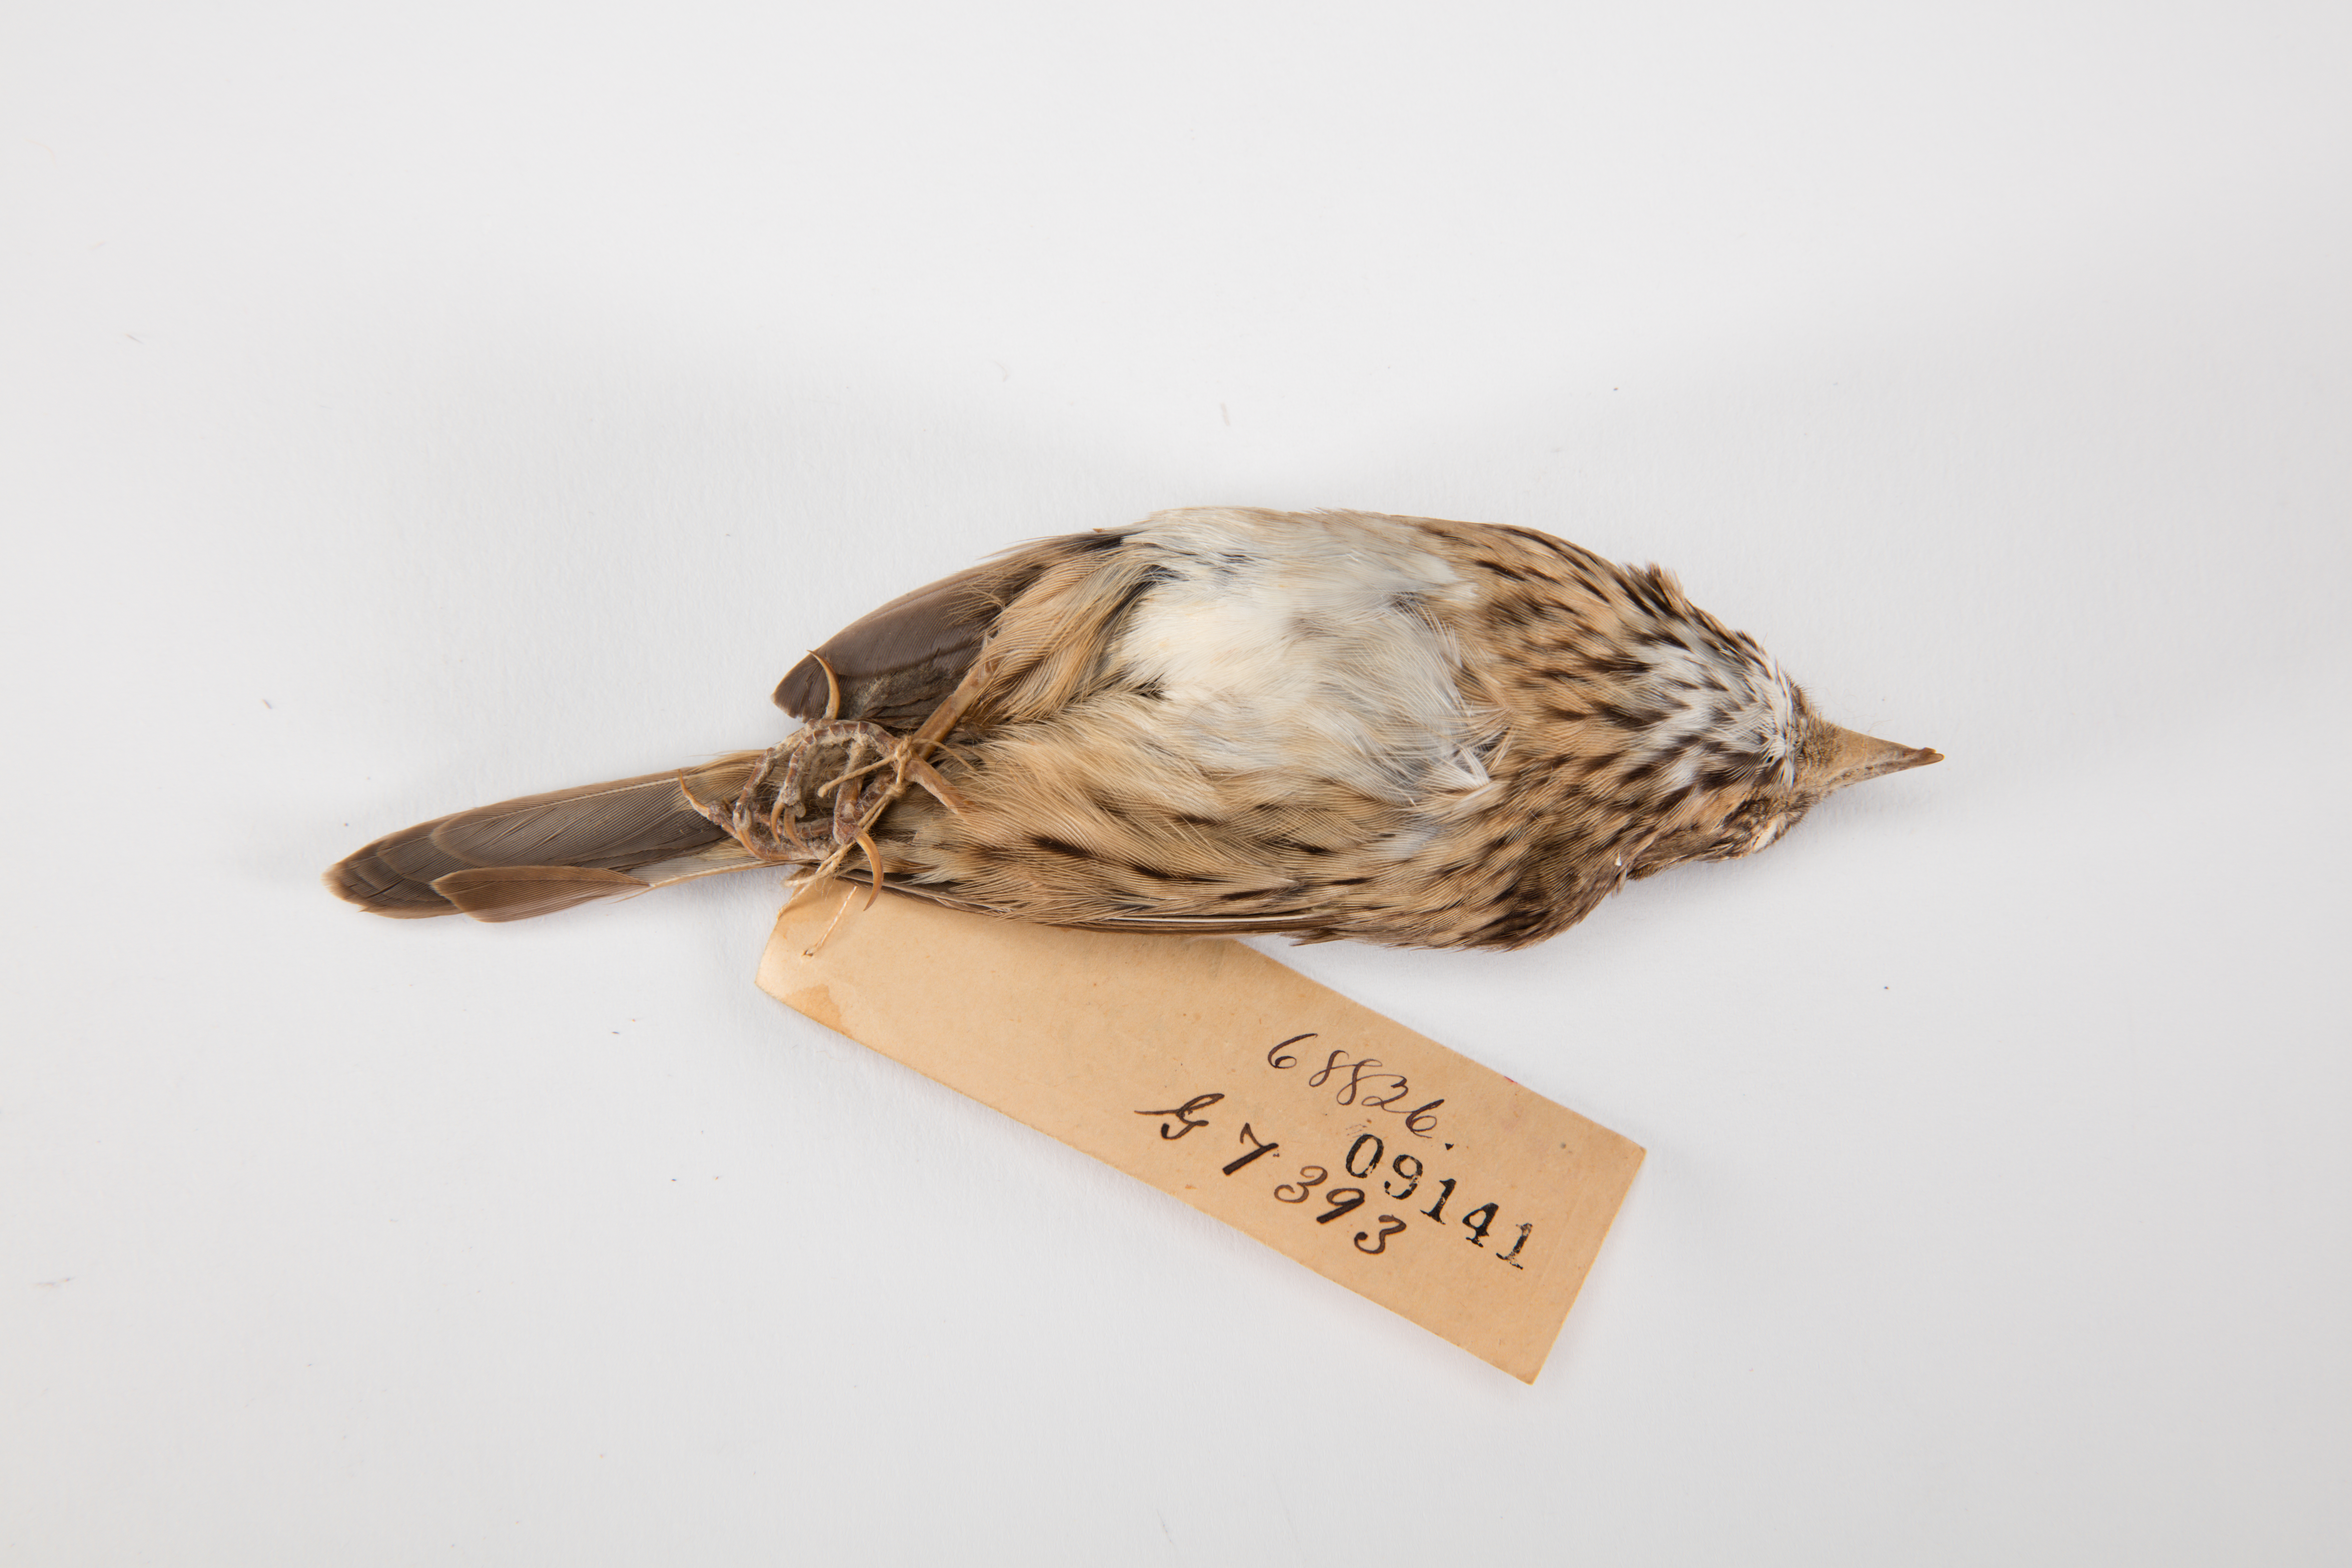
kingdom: Animalia
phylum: Chordata
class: Aves
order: Passeriformes
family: Passerellidae
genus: Melospiza
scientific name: Melospiza lincolnii
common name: Lincoln's sparrow
